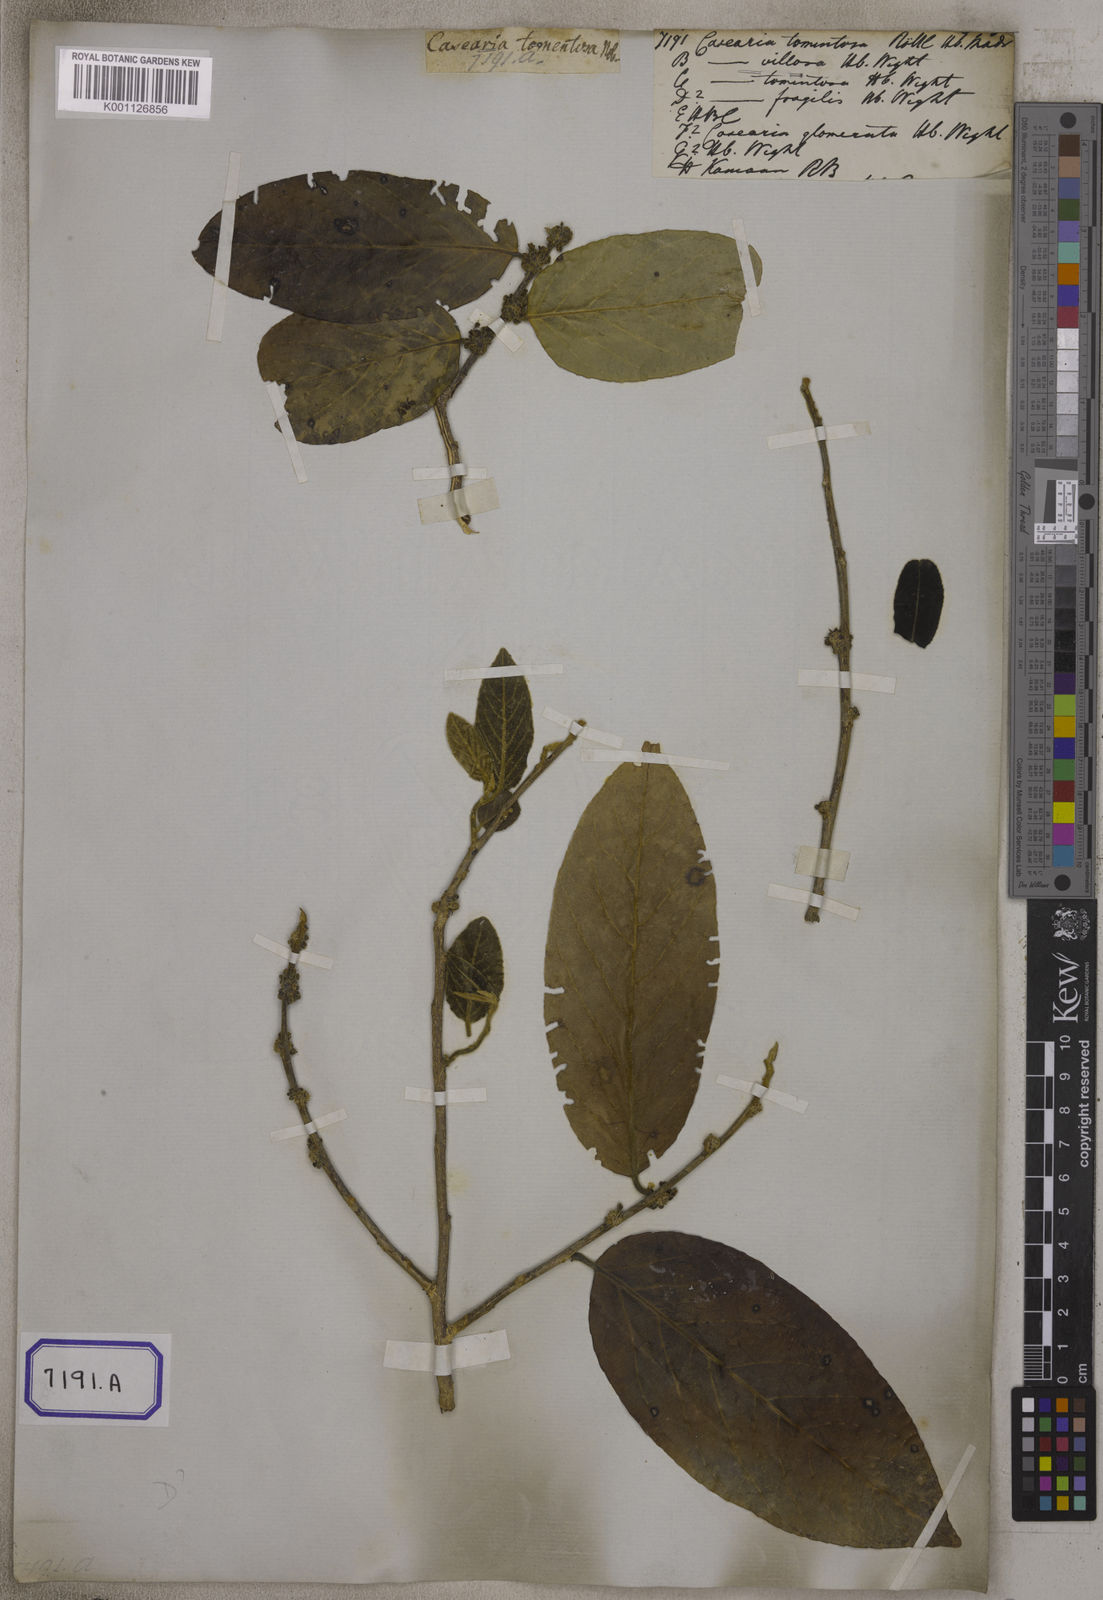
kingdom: Plantae
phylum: Tracheophyta
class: Magnoliopsida
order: Malpighiales
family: Salicaceae
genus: Casearia
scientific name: Casearia tomentosa
